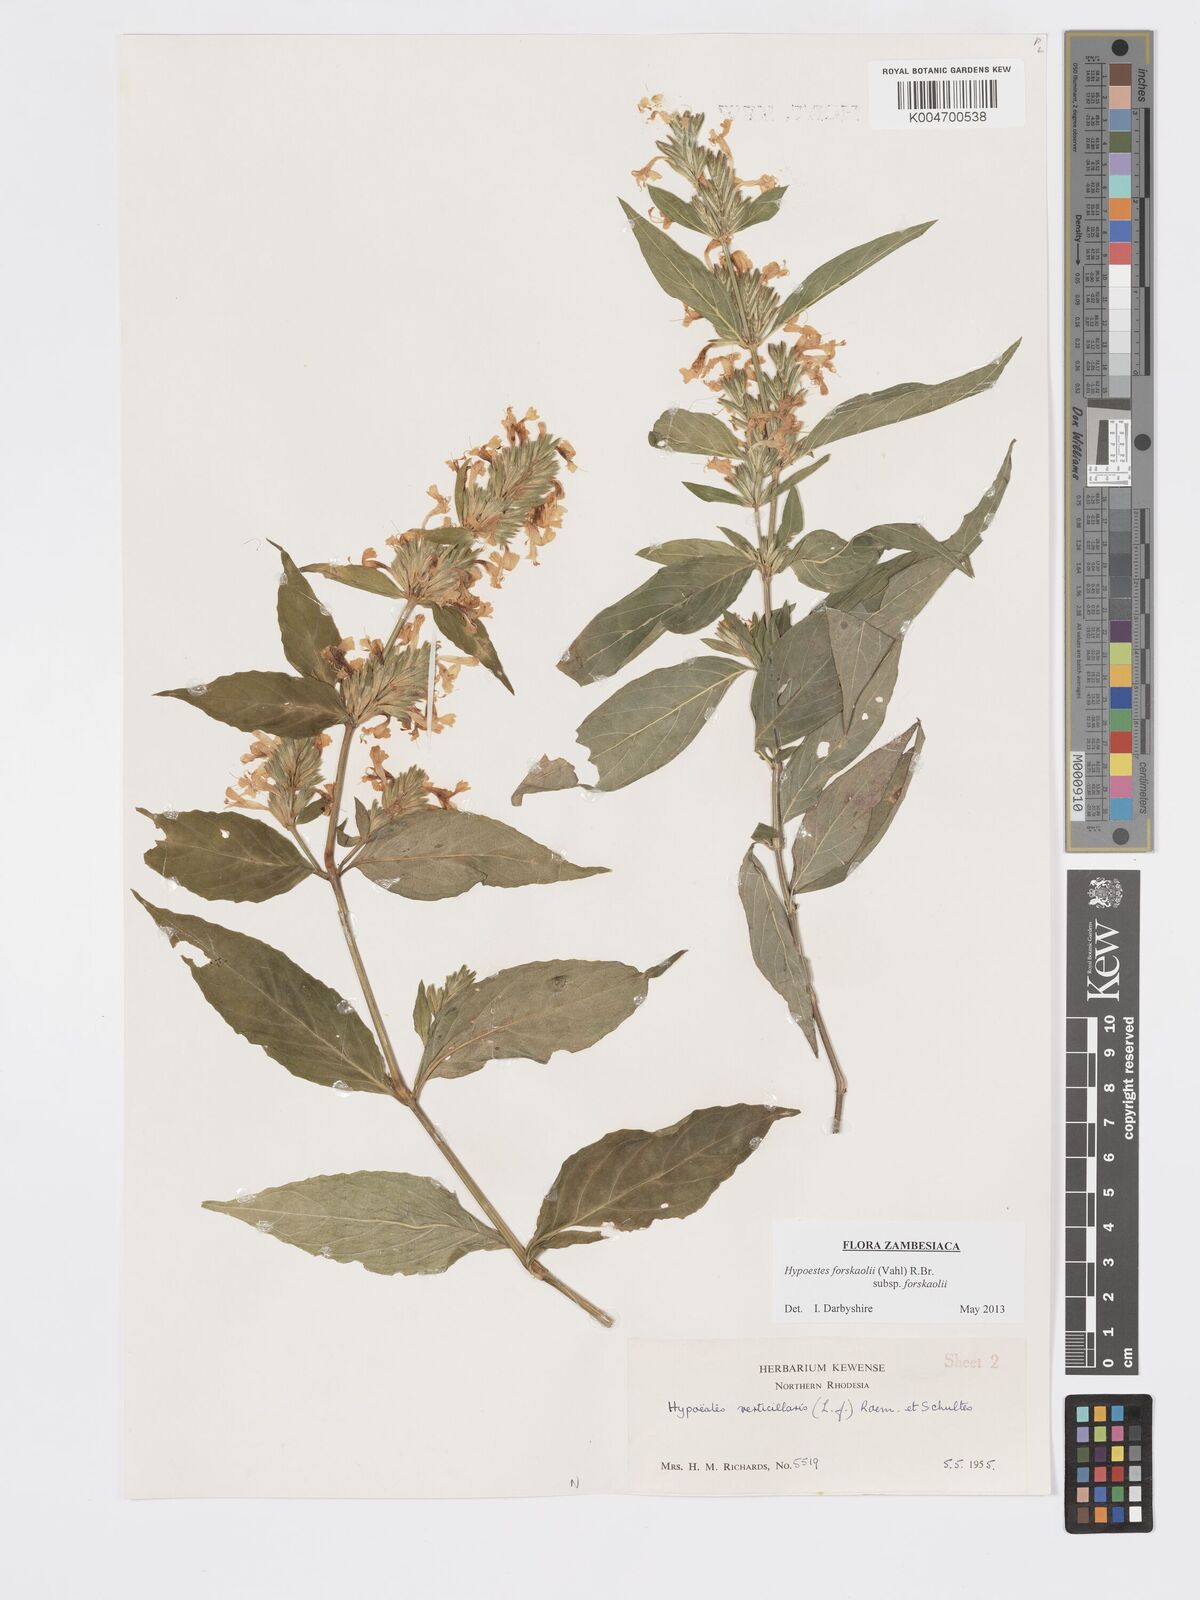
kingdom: Plantae
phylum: Tracheophyta
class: Magnoliopsida
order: Lamiales
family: Acanthaceae
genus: Hypoestes
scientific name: Hypoestes forskaolii
